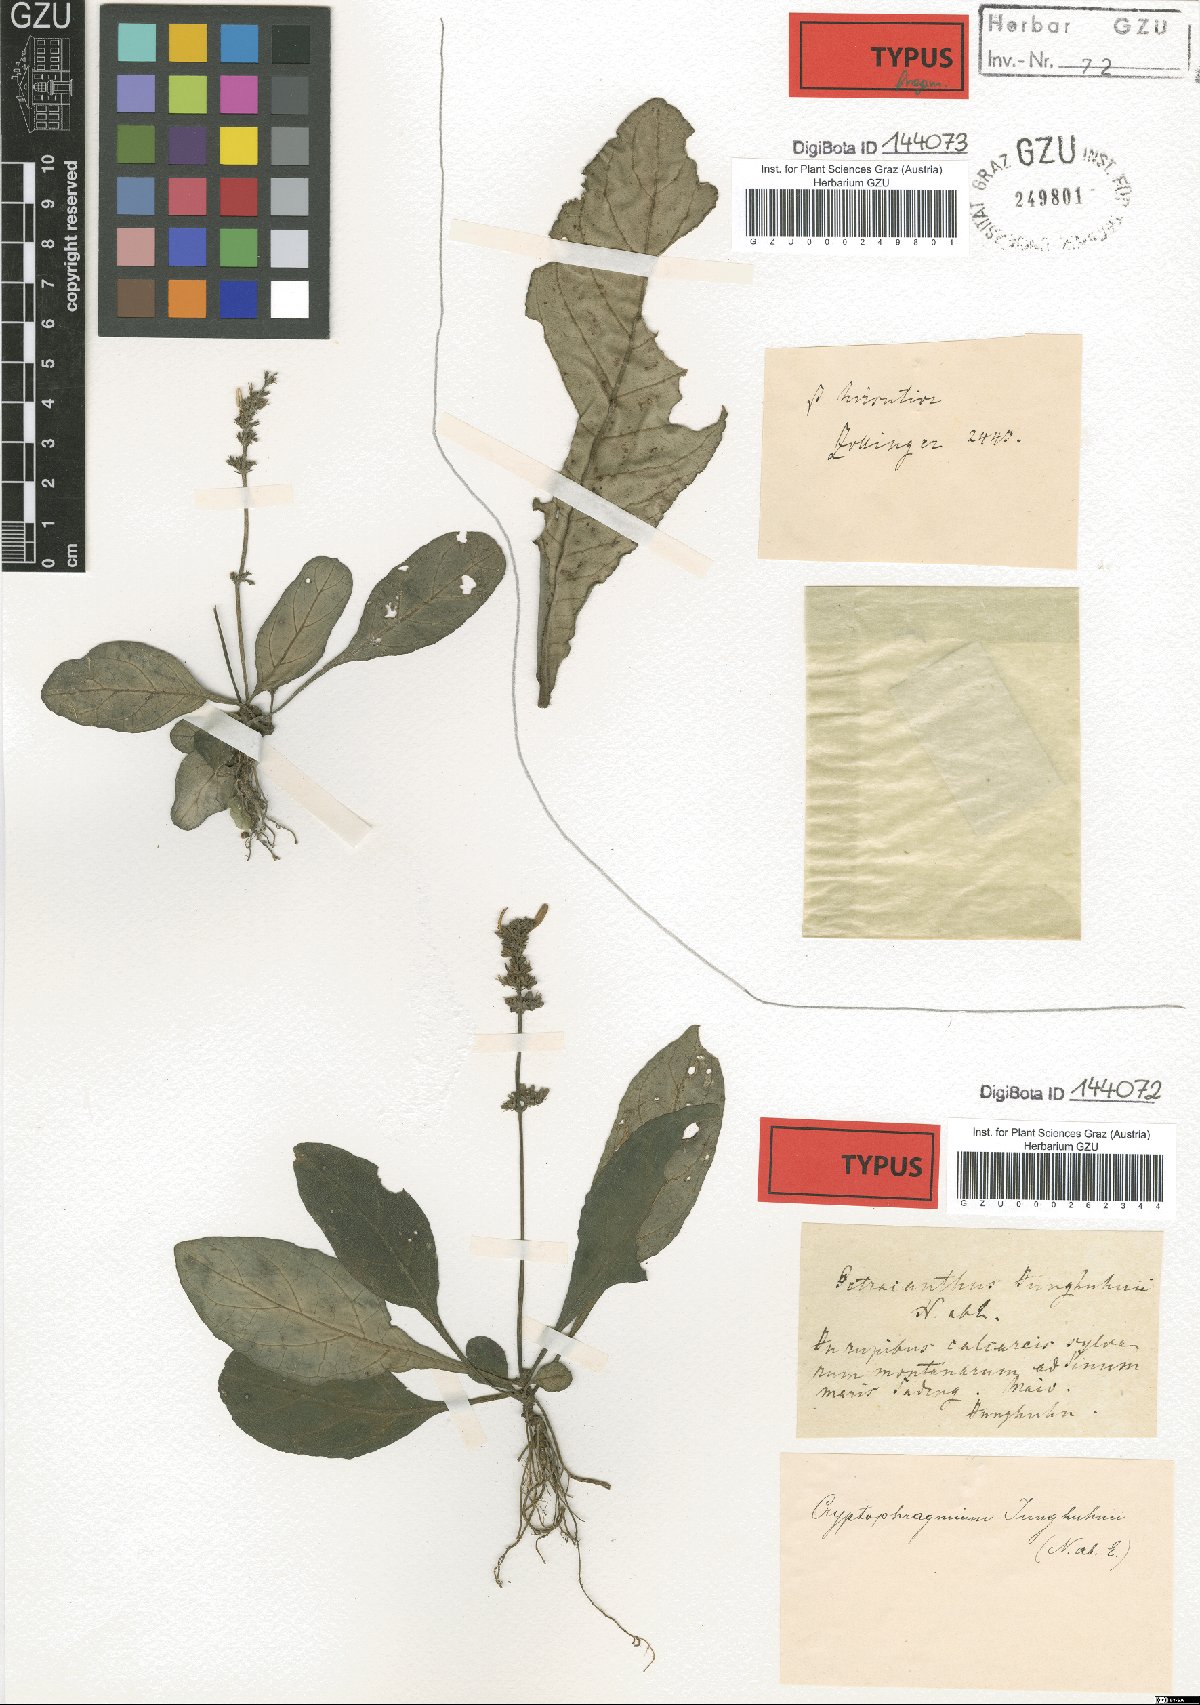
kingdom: Plantae
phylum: Tracheophyta
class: Magnoliopsida
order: Lamiales
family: Acanthaceae
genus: Gymnostachyum
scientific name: Gymnostachyum cumingianum
